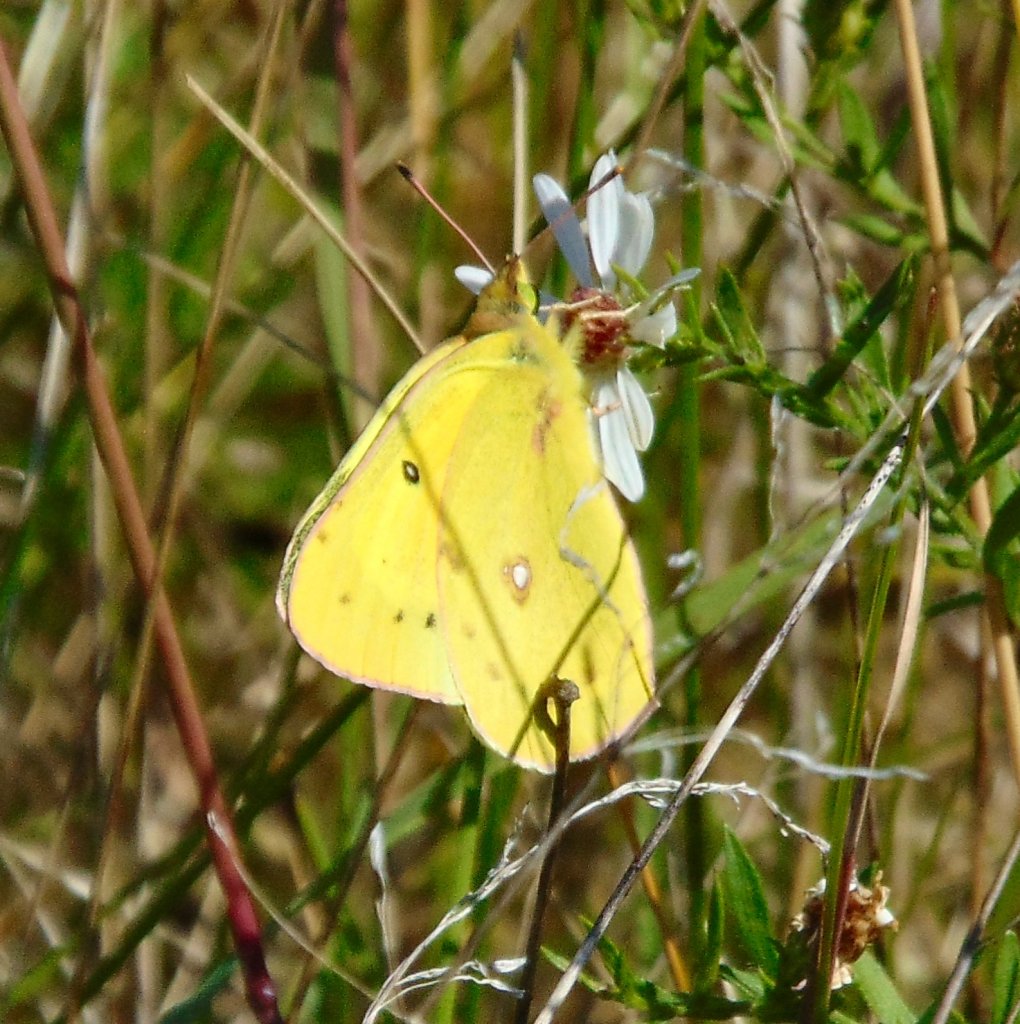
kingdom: Animalia
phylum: Arthropoda
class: Insecta
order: Lepidoptera
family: Pieridae
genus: Colias
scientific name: Colias eurytheme
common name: Orange Sulphur
